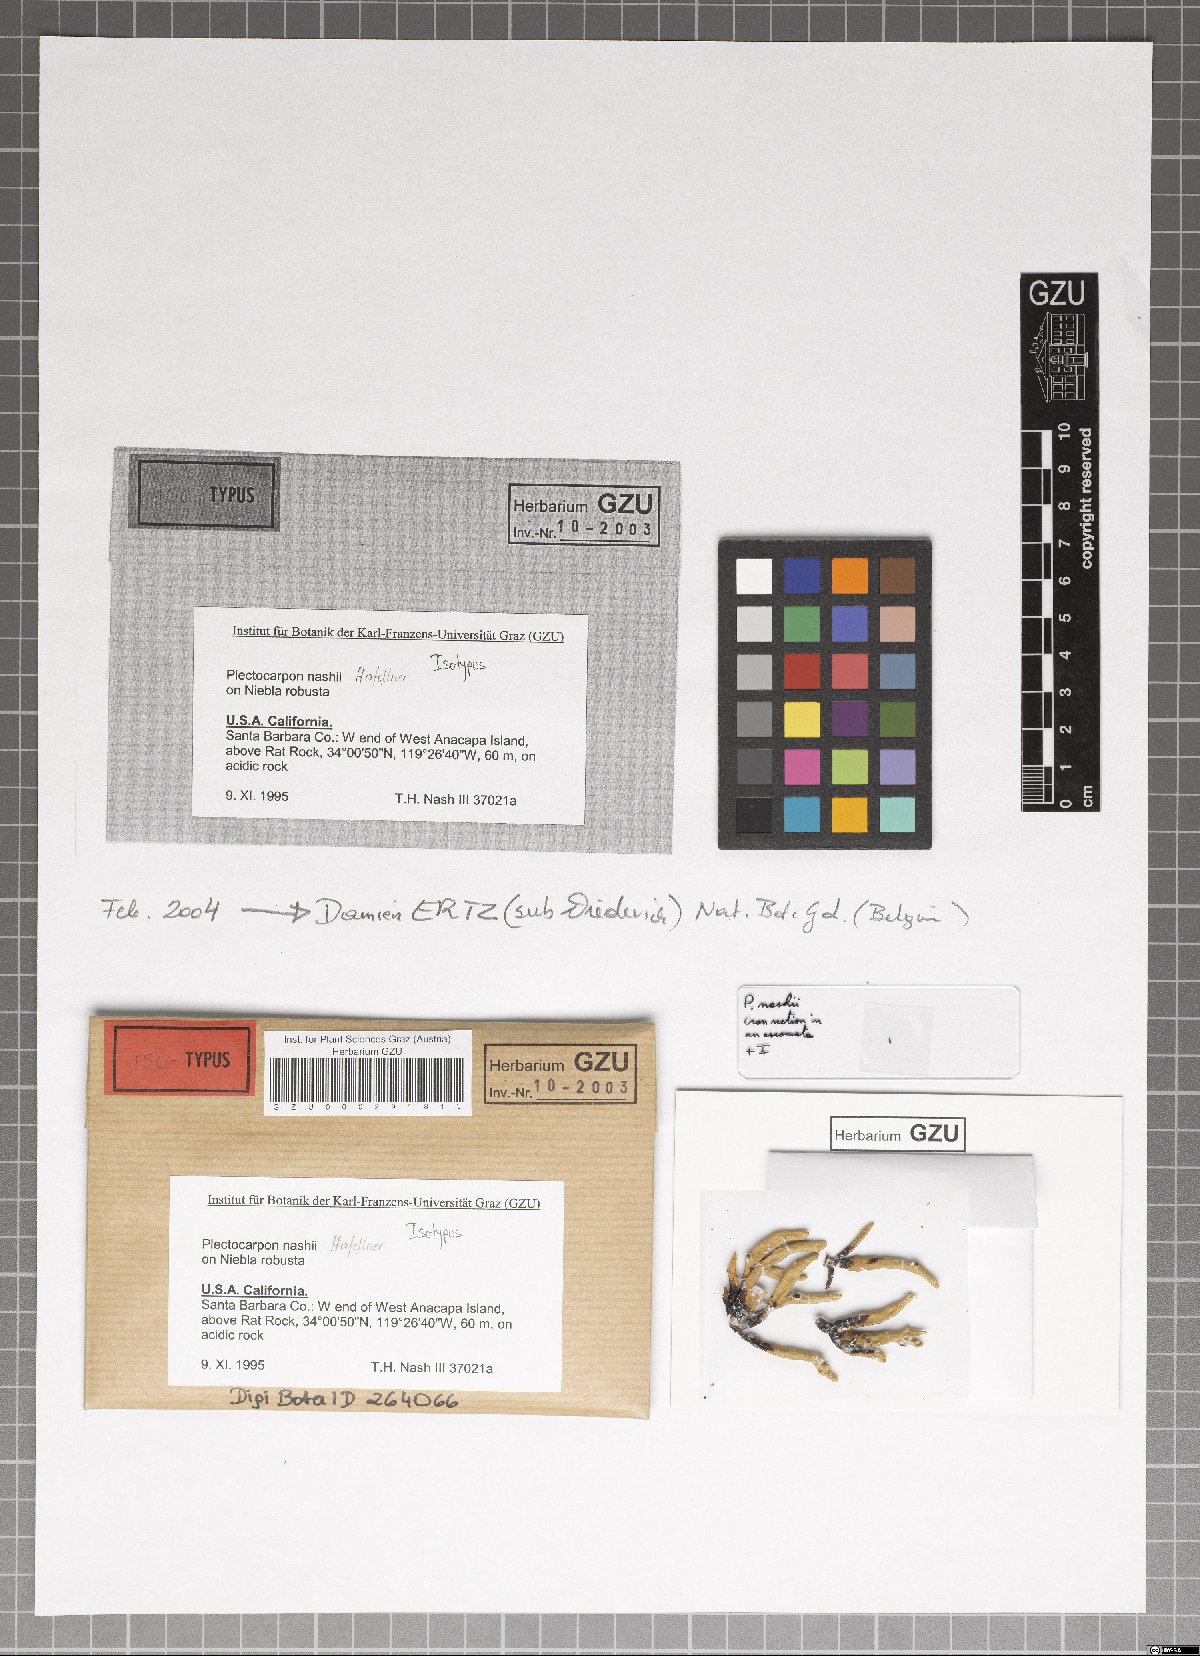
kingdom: Fungi
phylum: Ascomycota
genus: Mixtoconidium
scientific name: Mixtoconidium nashii
